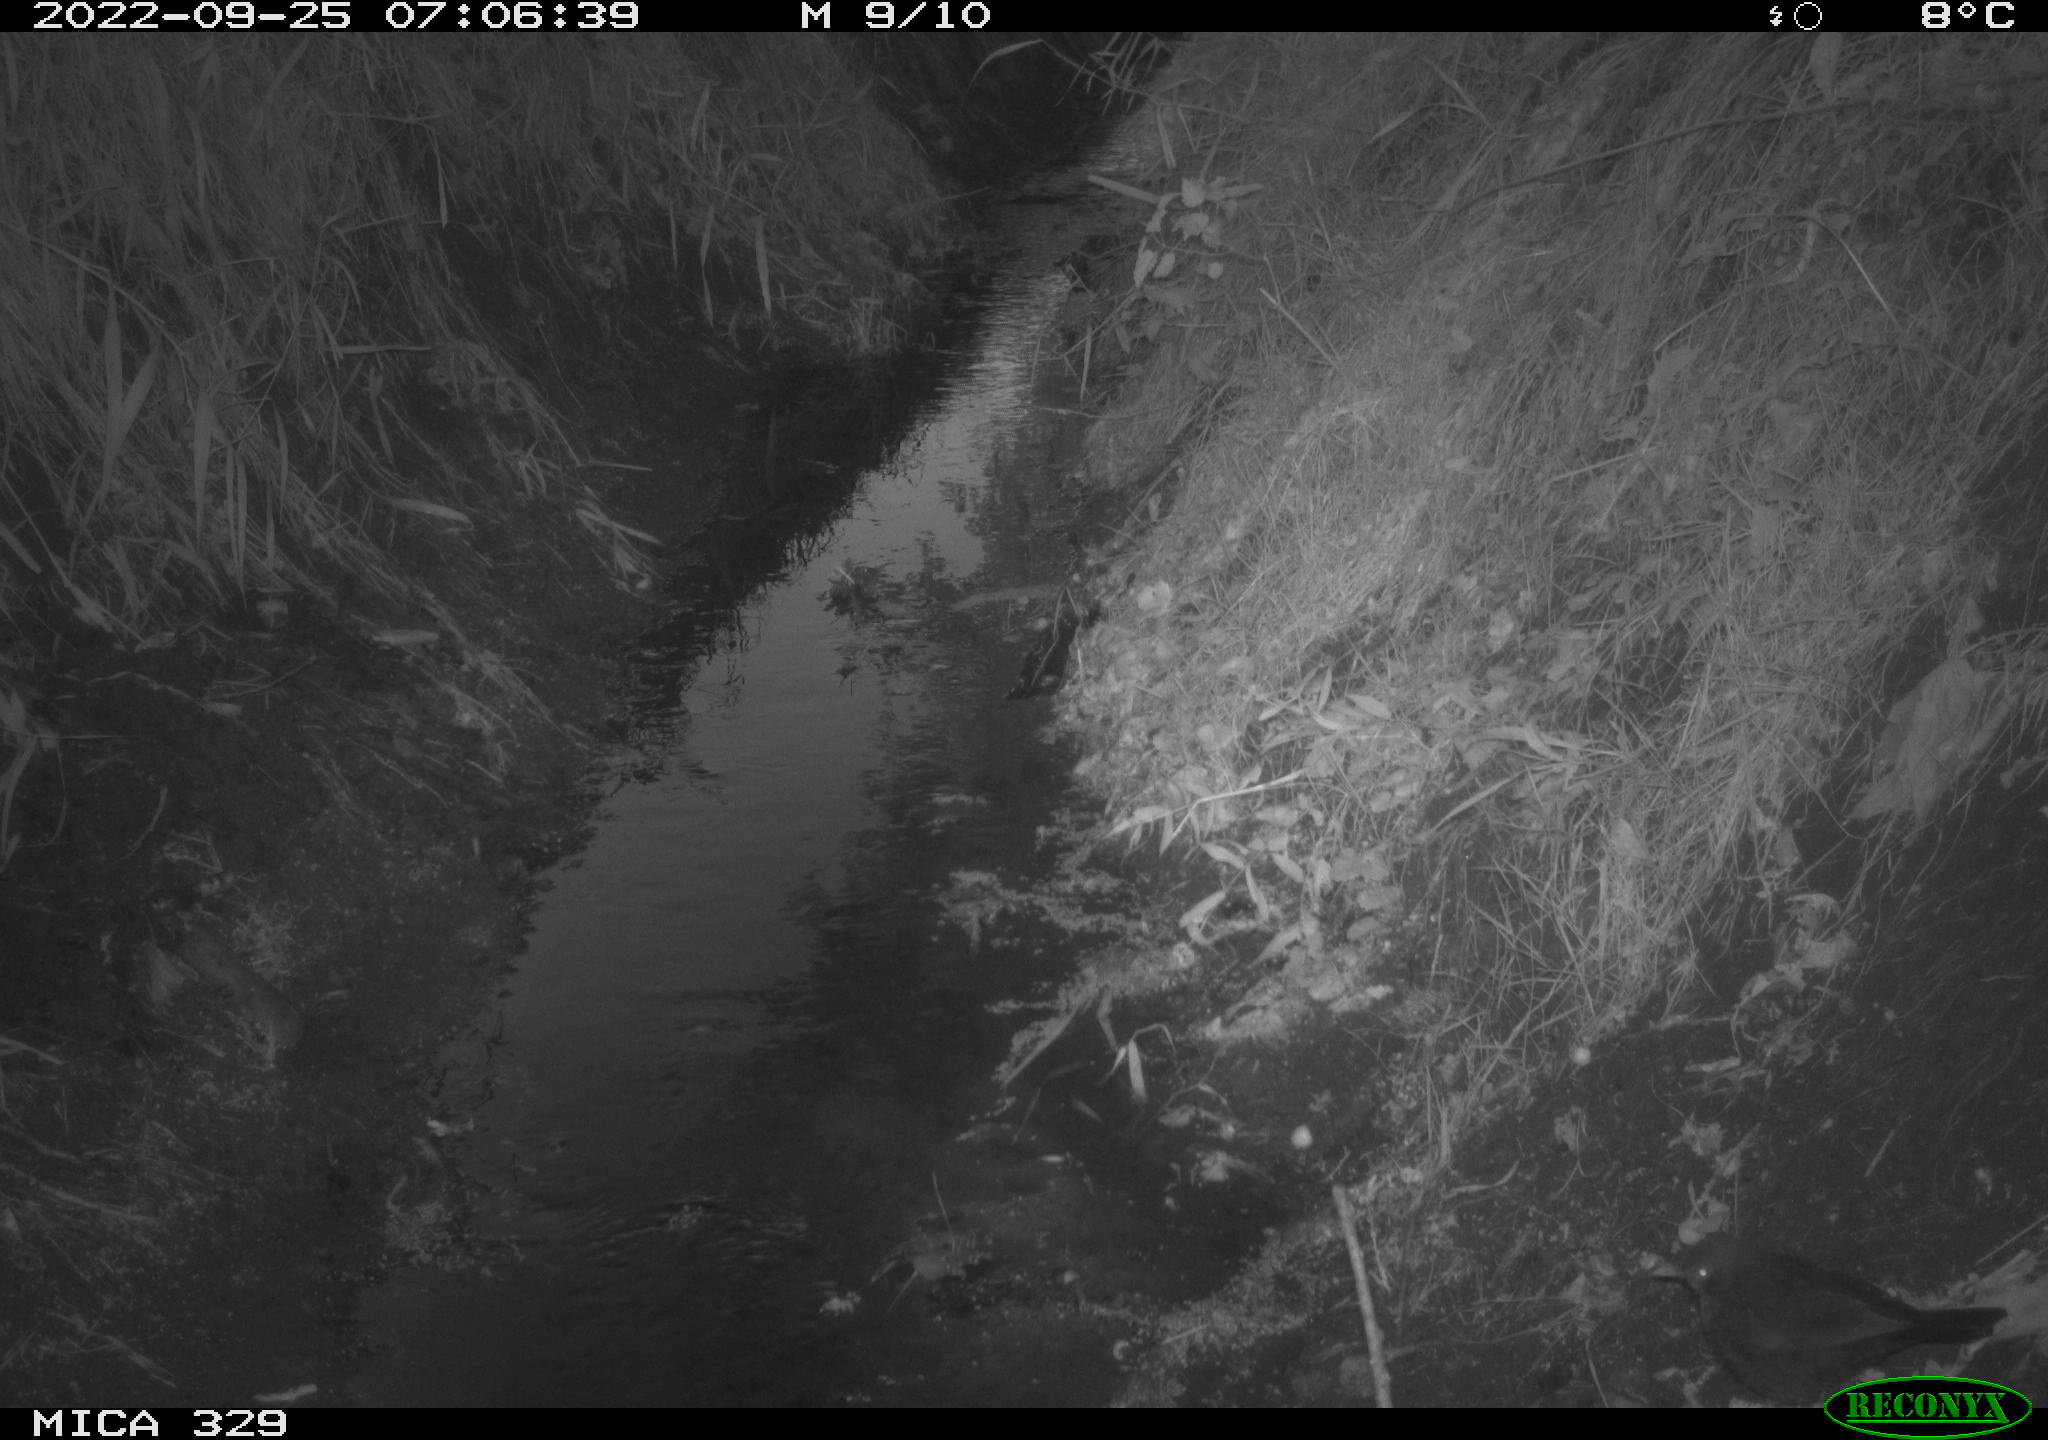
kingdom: Animalia
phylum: Chordata
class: Aves
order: Passeriformes
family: Turdidae
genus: Turdus
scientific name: Turdus merula
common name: Common blackbird
